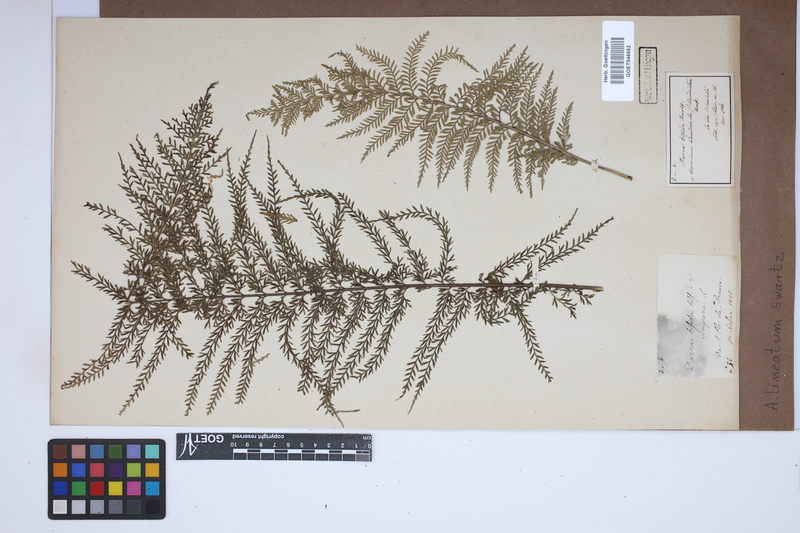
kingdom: Plantae
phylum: Tracheophyta
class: Polypodiopsida
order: Polypodiales
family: Aspleniaceae
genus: Asplenium
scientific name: Asplenium daucifolium
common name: Mauritius spleenwort
